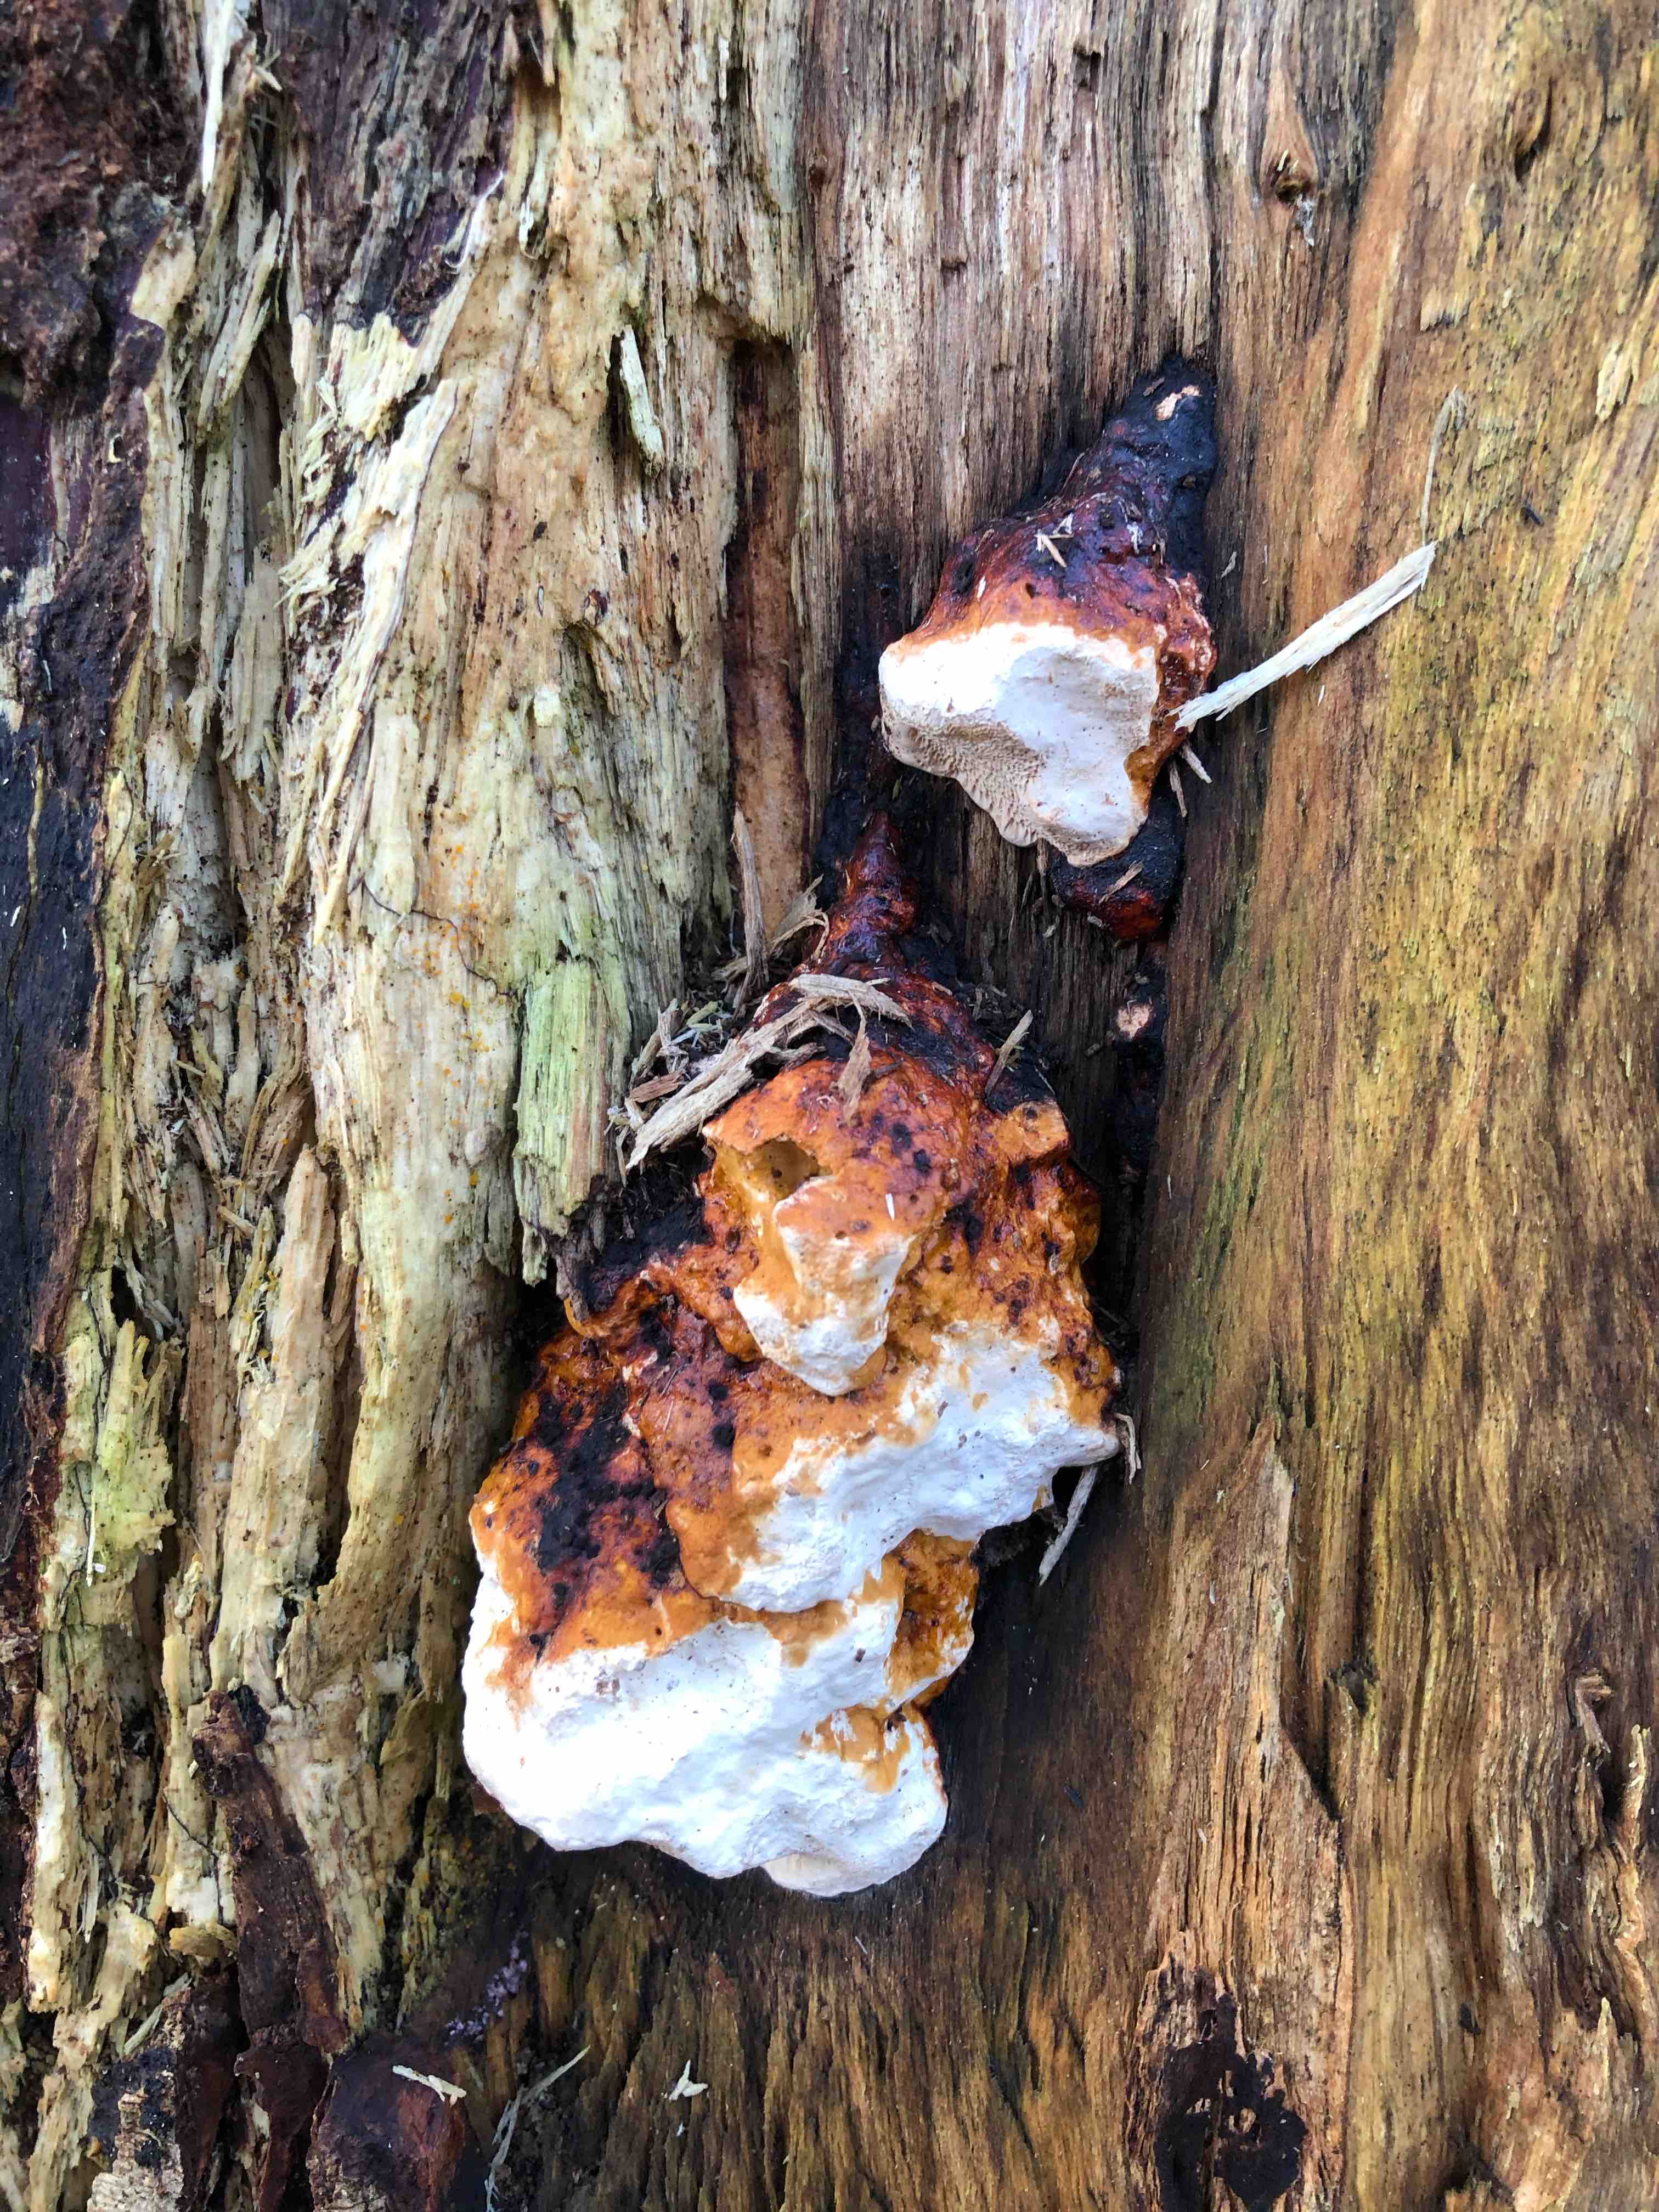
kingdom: Fungi
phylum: Basidiomycota
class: Agaricomycetes
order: Polyporales
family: Fomitopsidaceae
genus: Fomitopsis
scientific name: Fomitopsis pinicola
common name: randbæltet hovporesvamp
